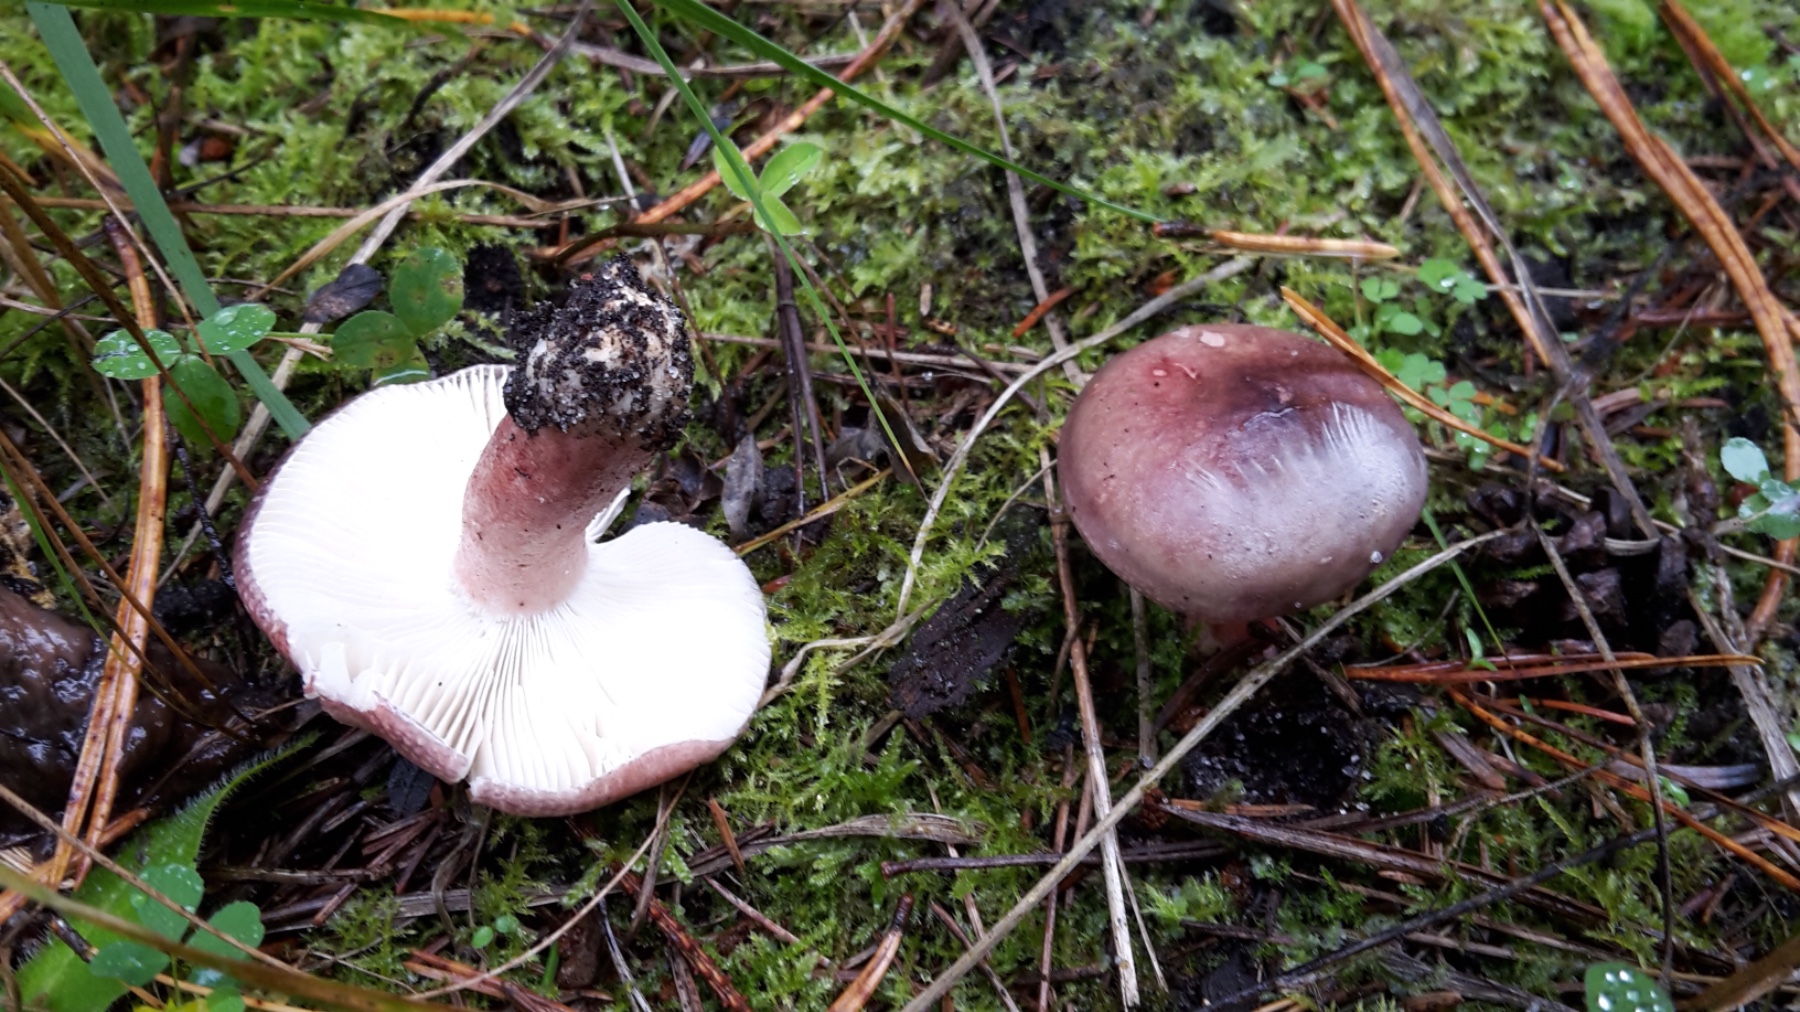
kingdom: Fungi
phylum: Basidiomycota
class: Agaricomycetes
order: Russulales
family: Russulaceae
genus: Russula
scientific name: Russula queletii
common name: Quélets skørhat
